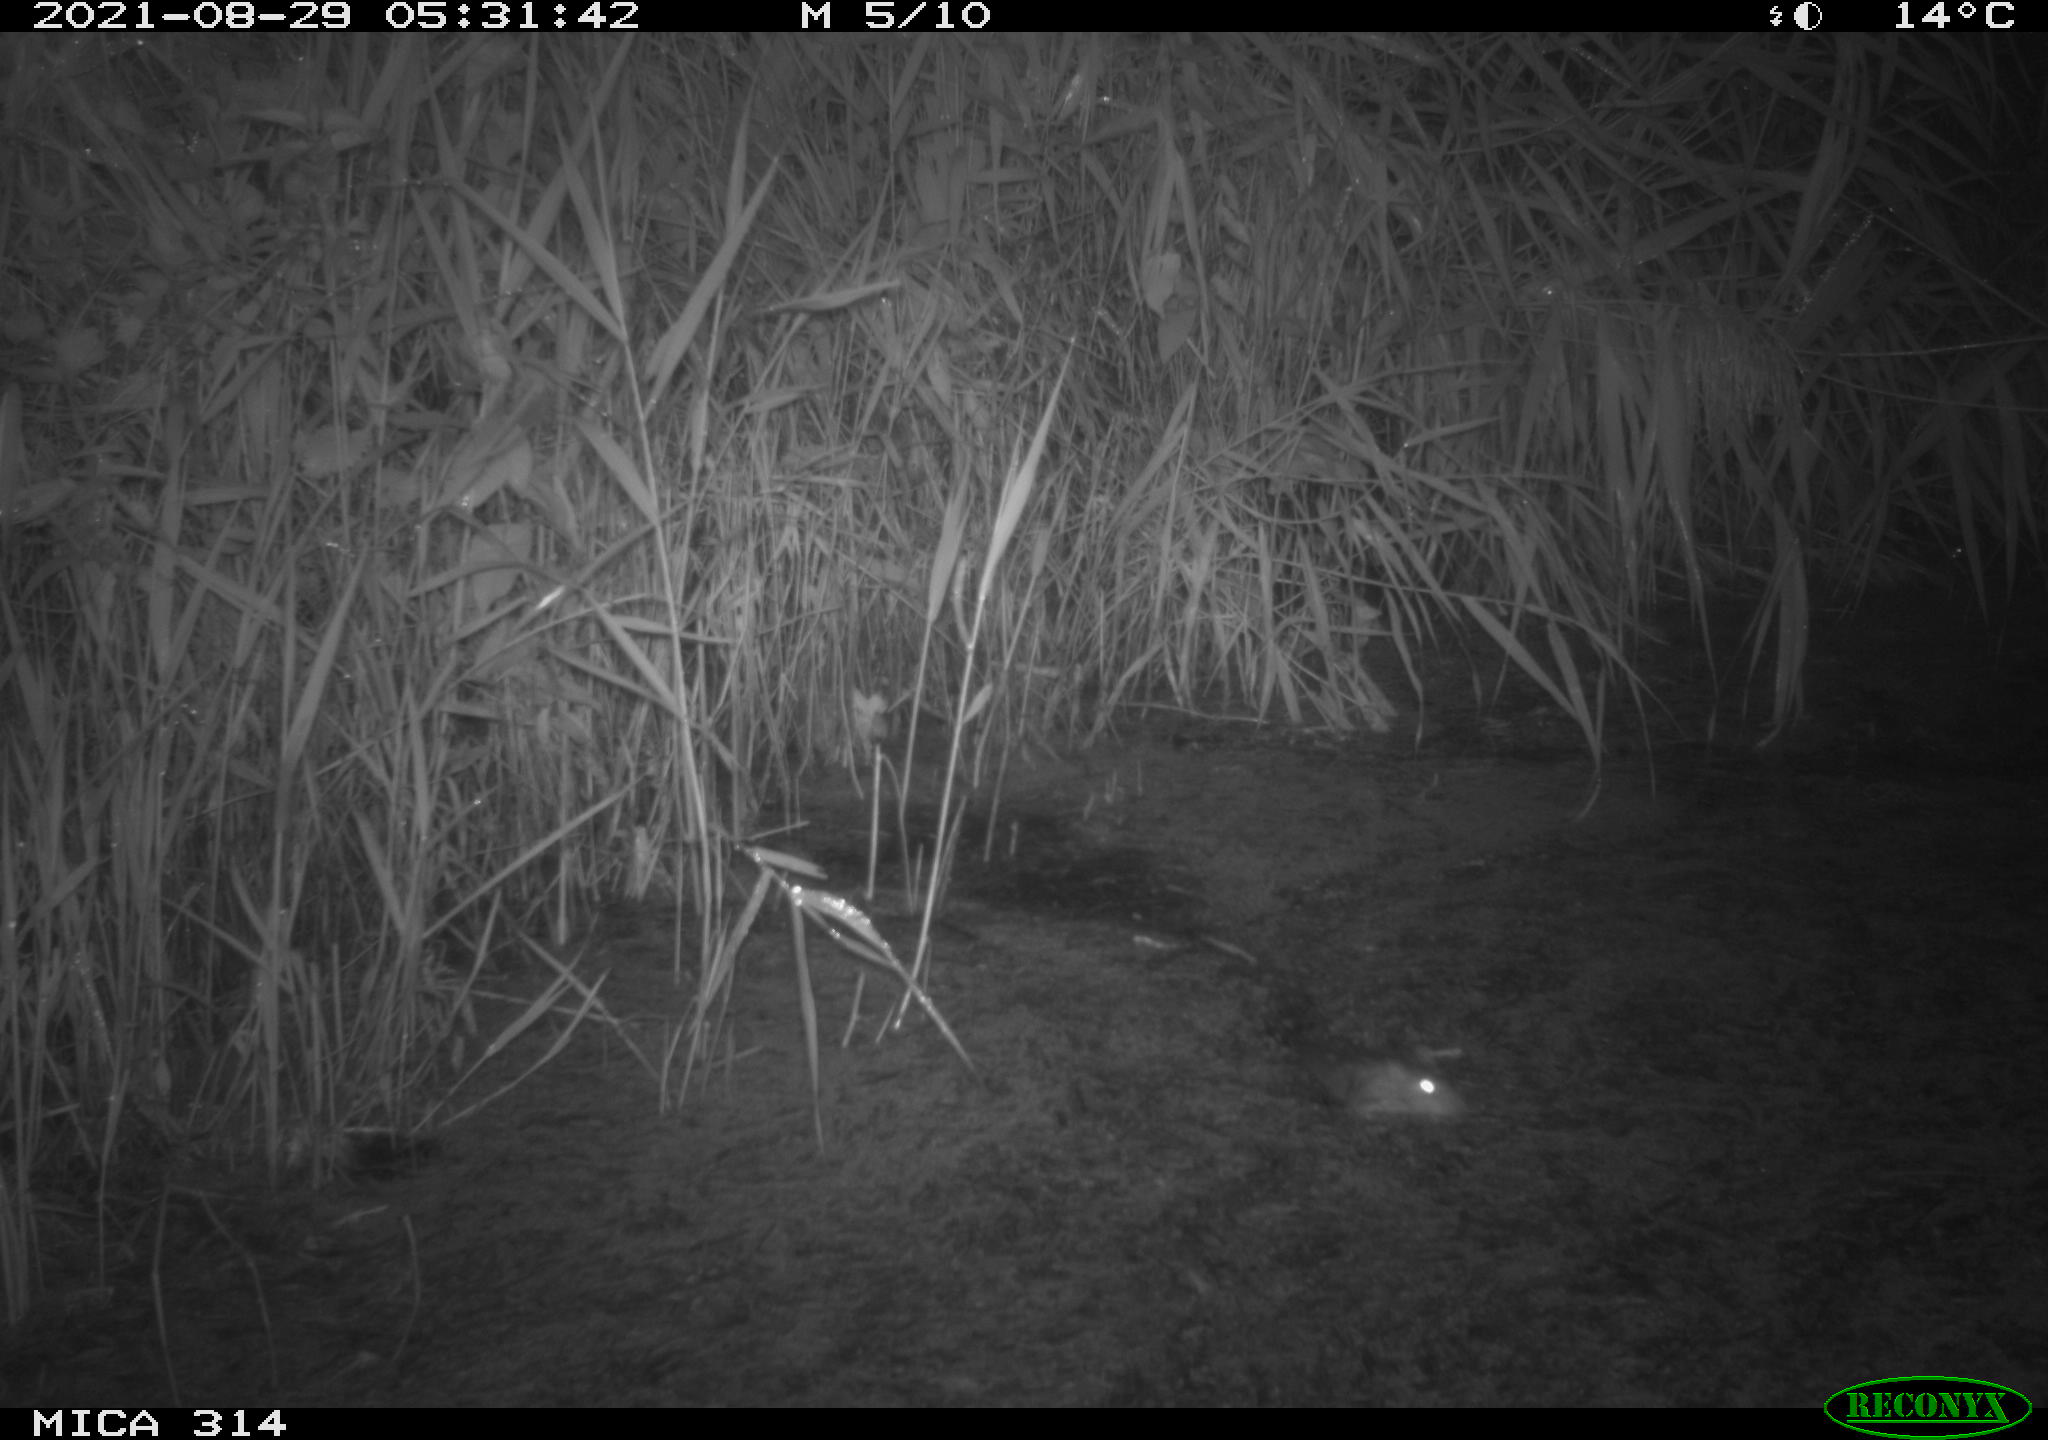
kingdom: Animalia
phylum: Chordata
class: Mammalia
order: Rodentia
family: Muridae
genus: Rattus
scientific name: Rattus norvegicus
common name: Brown rat
